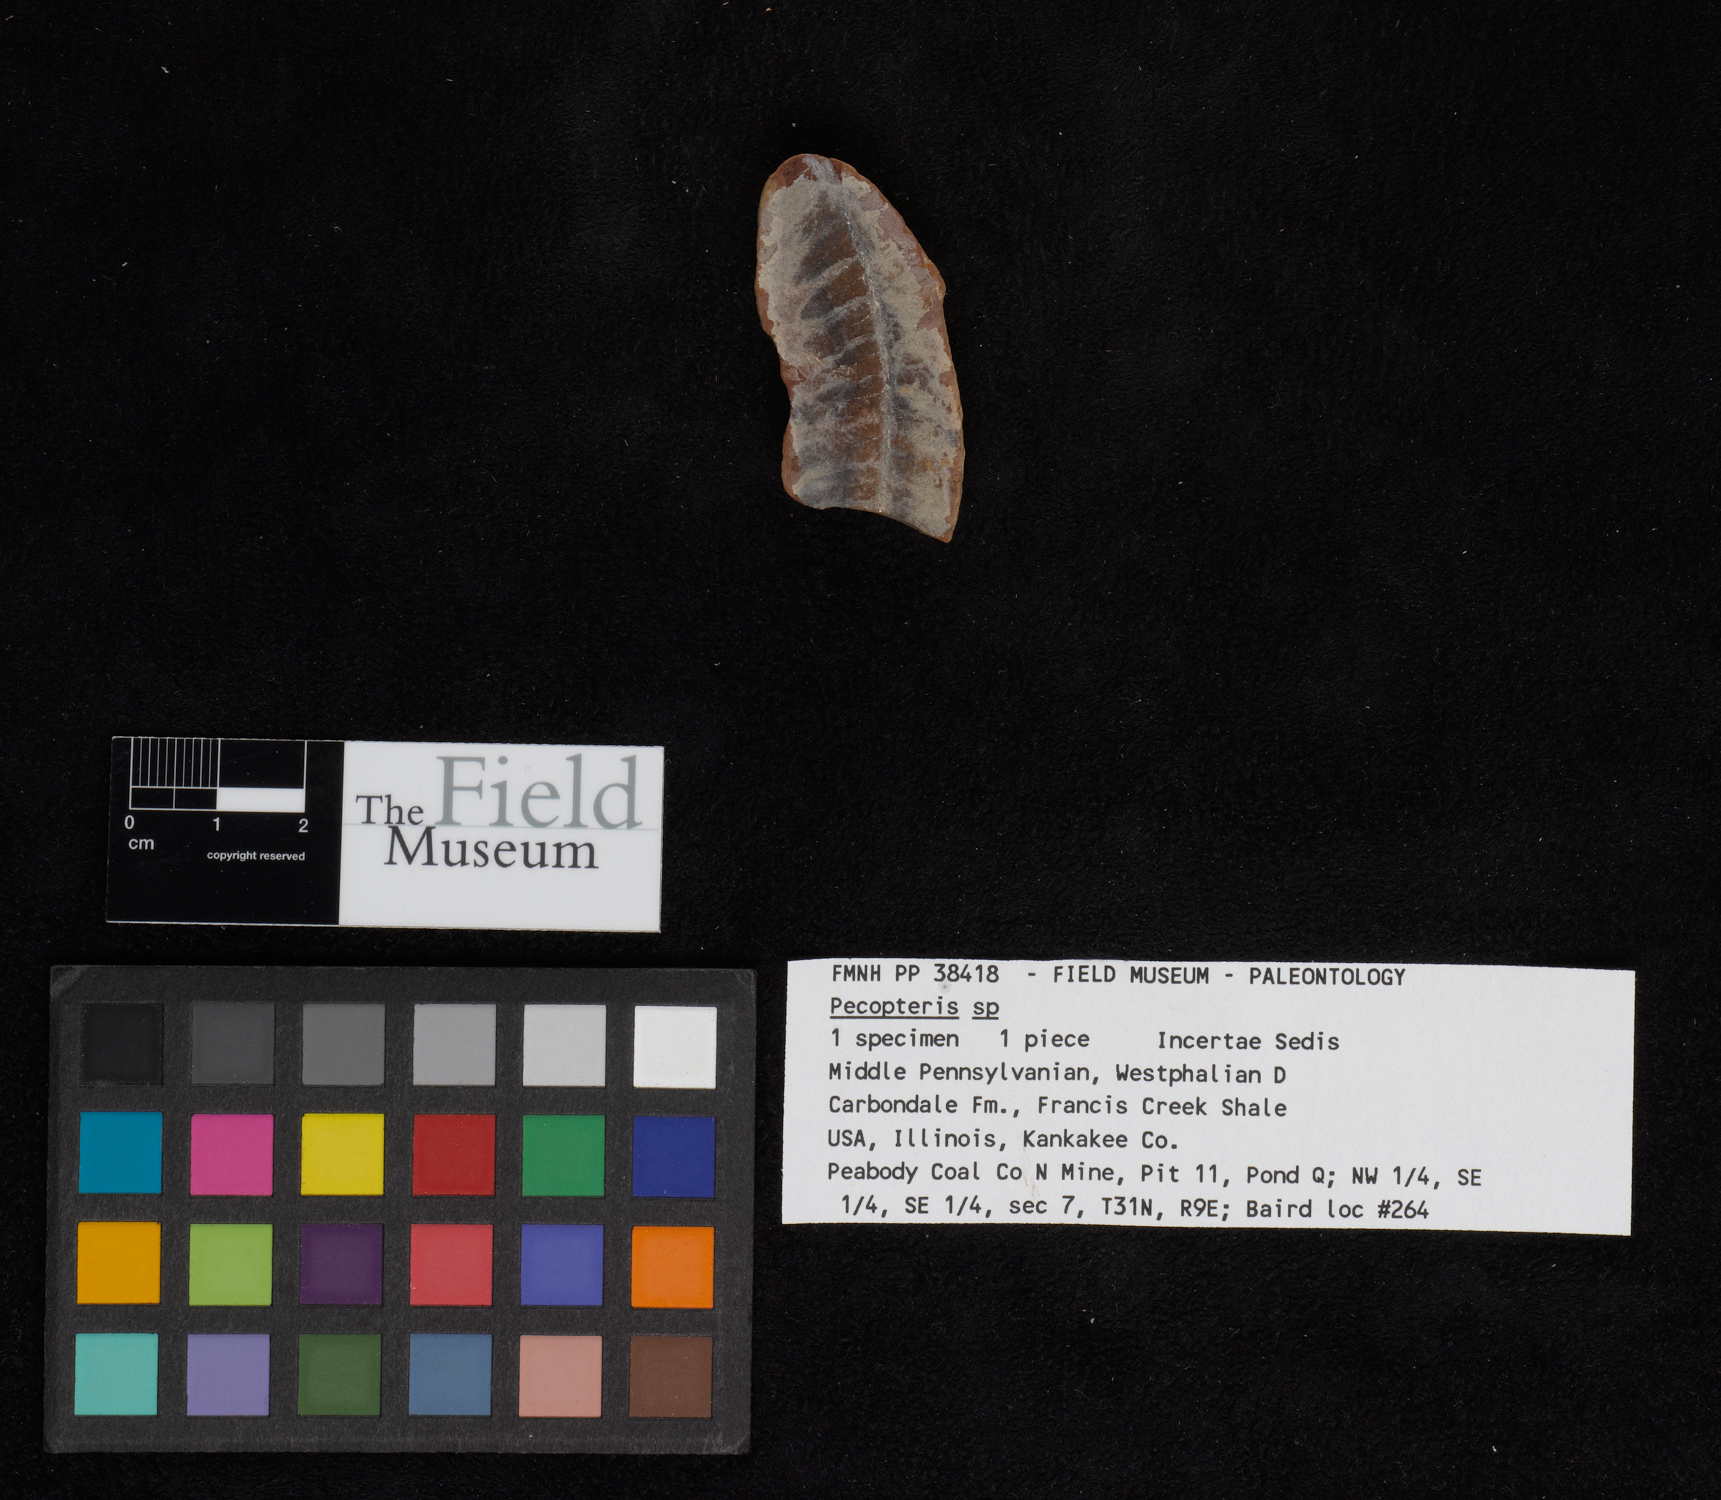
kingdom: Plantae
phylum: Tracheophyta
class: Polypodiopsida
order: Marattiales
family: Asterothecaceae
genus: Pecopteris
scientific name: Pecopteris
